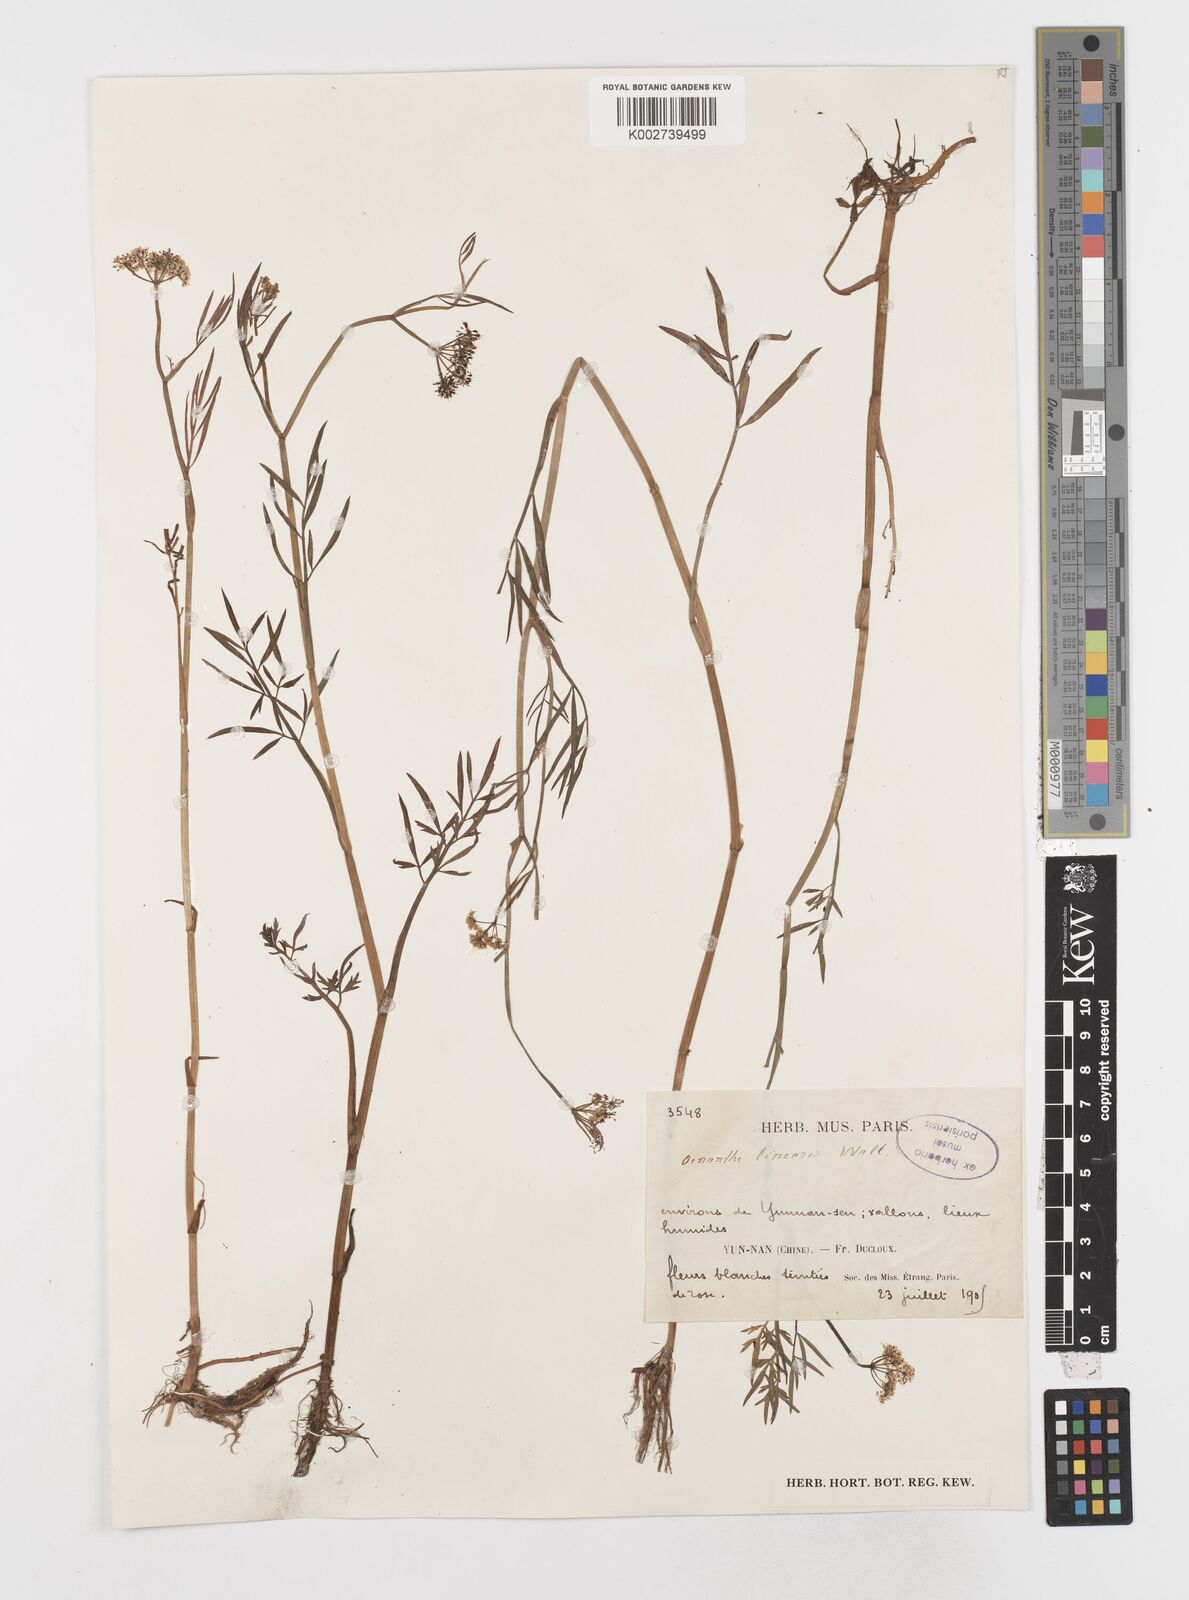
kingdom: Plantae
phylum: Tracheophyta
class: Magnoliopsida
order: Apiales
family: Apiaceae
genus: Oenanthe
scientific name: Oenanthe linearis
